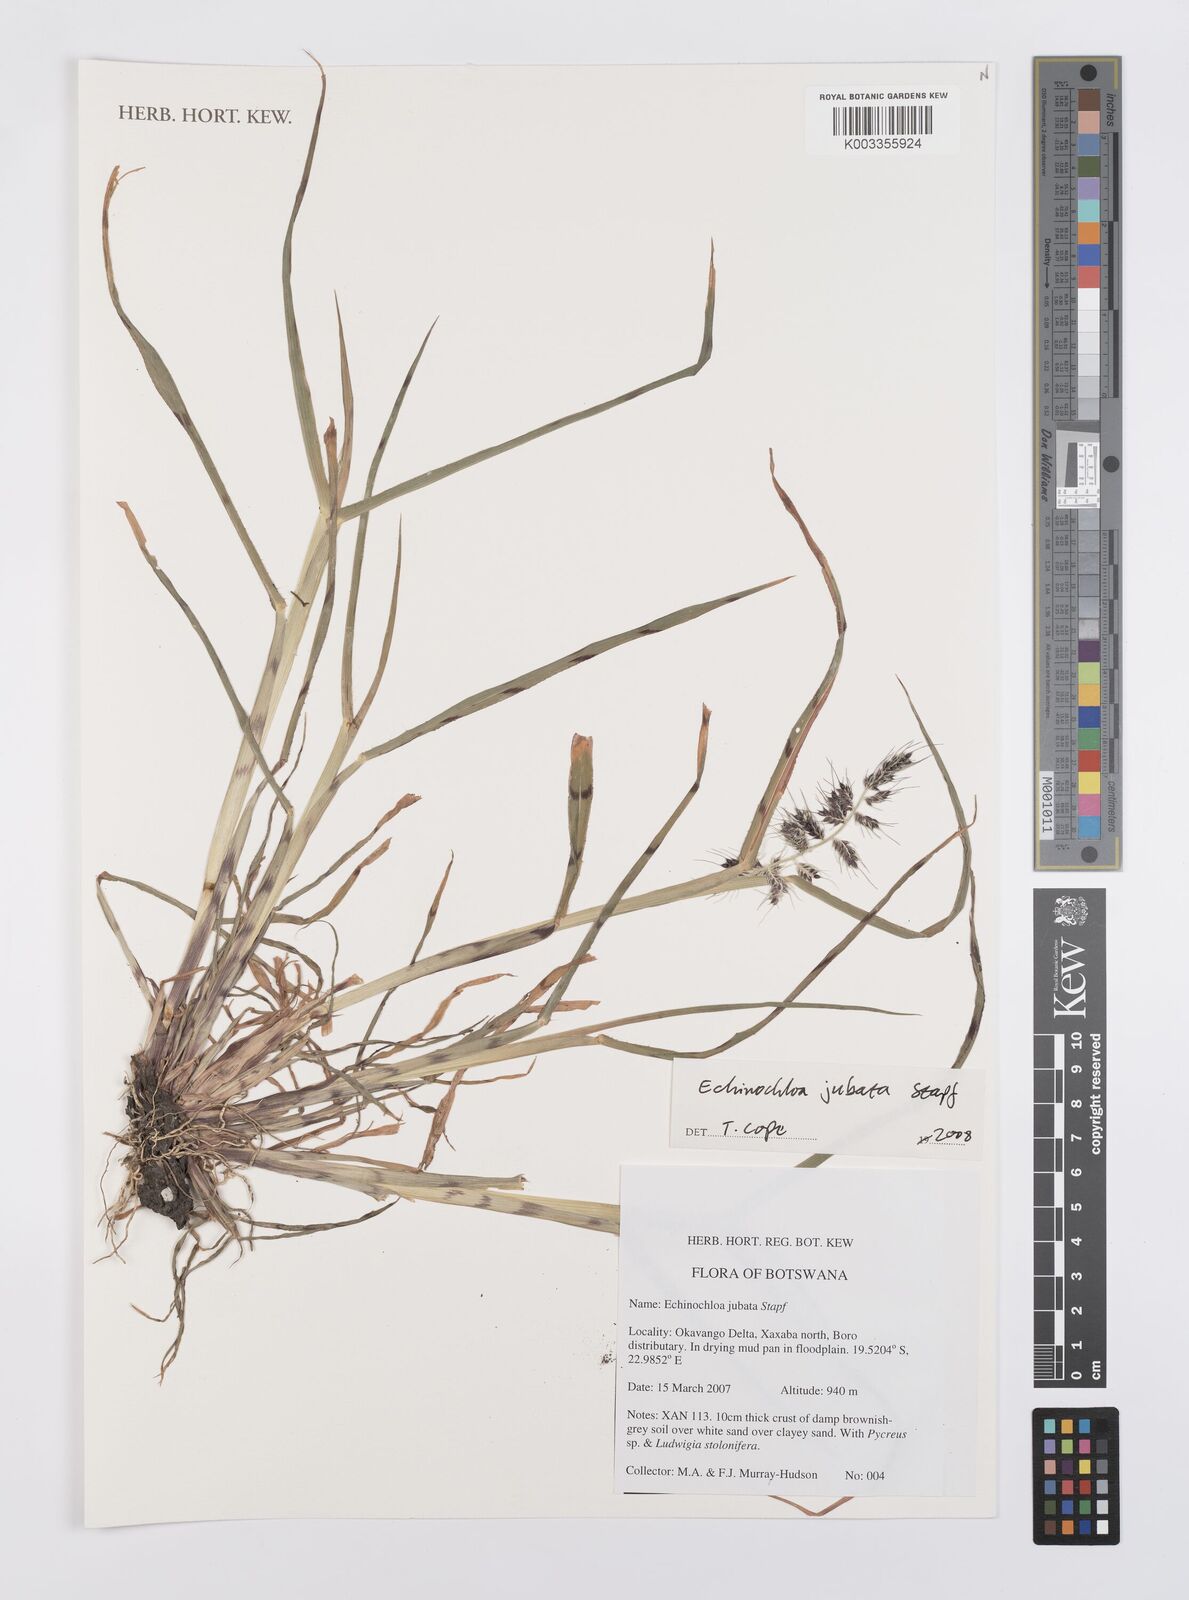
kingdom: Plantae
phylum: Tracheophyta
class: Liliopsida
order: Poales
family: Poaceae
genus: Echinochloa
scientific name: Echinochloa jubata
